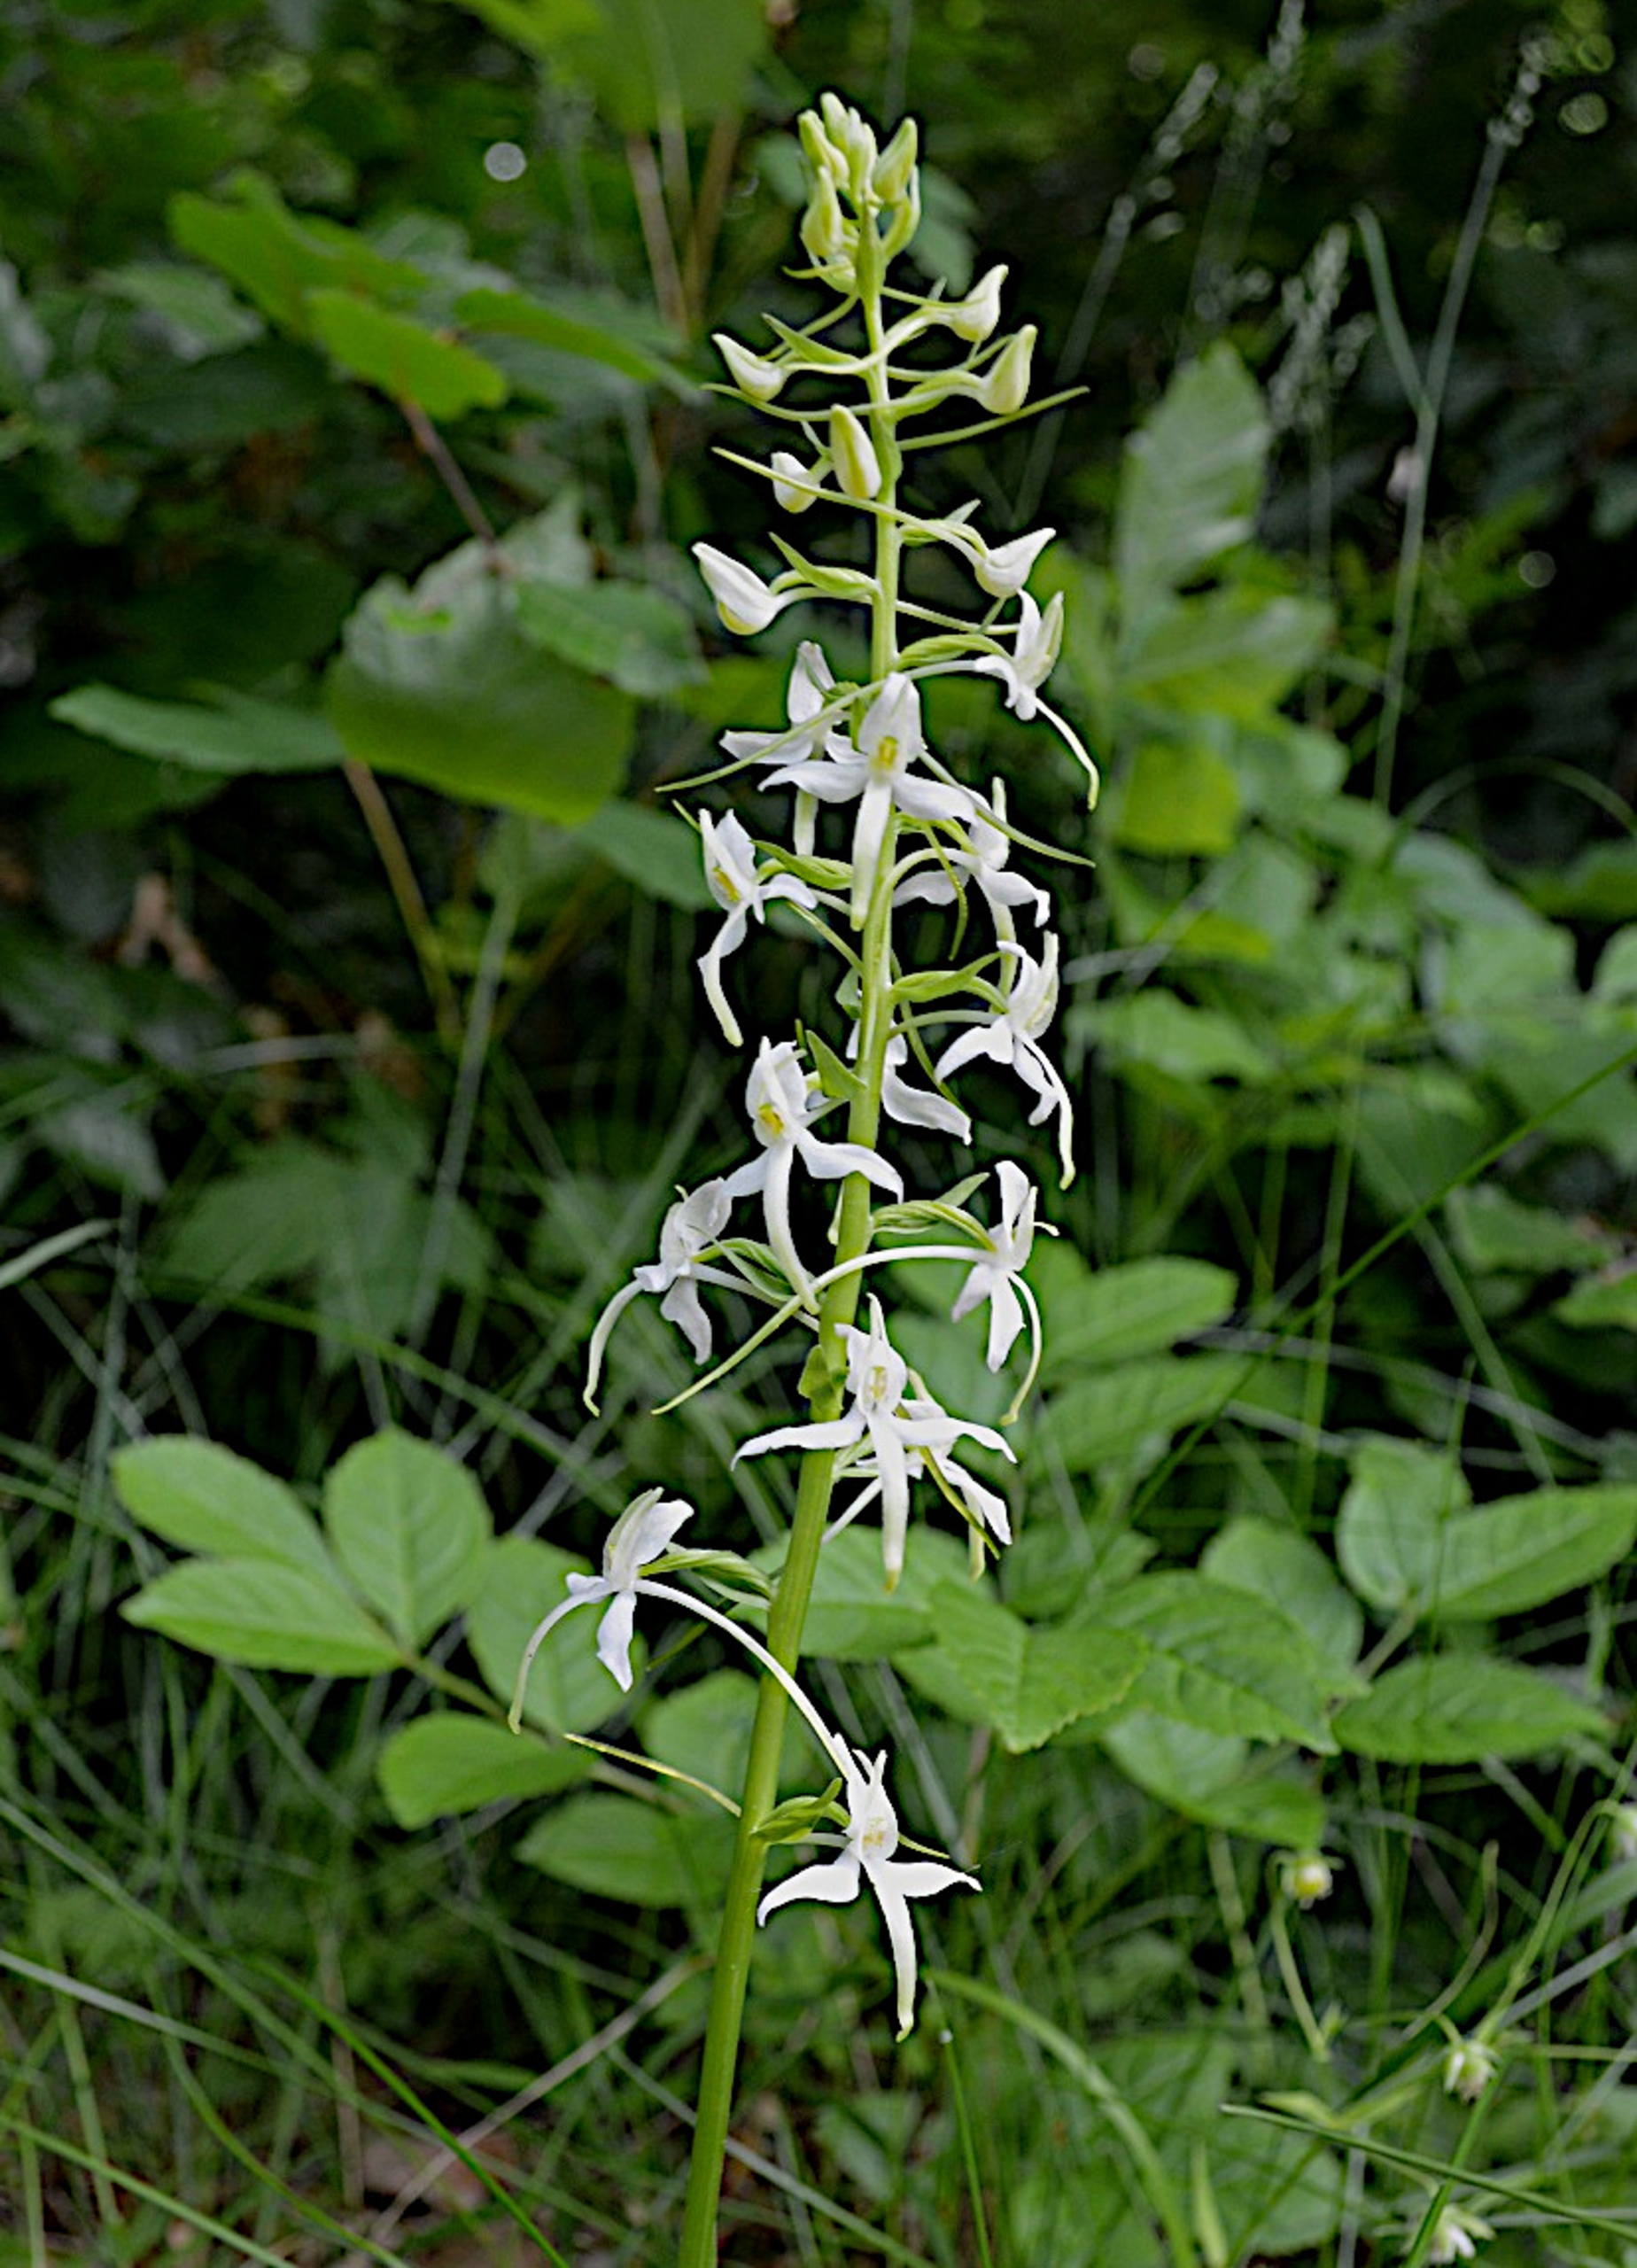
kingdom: Plantae
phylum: Tracheophyta
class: Liliopsida
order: Asparagales
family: Orchidaceae
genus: Platanthera
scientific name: Platanthera bifolia
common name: Langsporet gøgelilje
